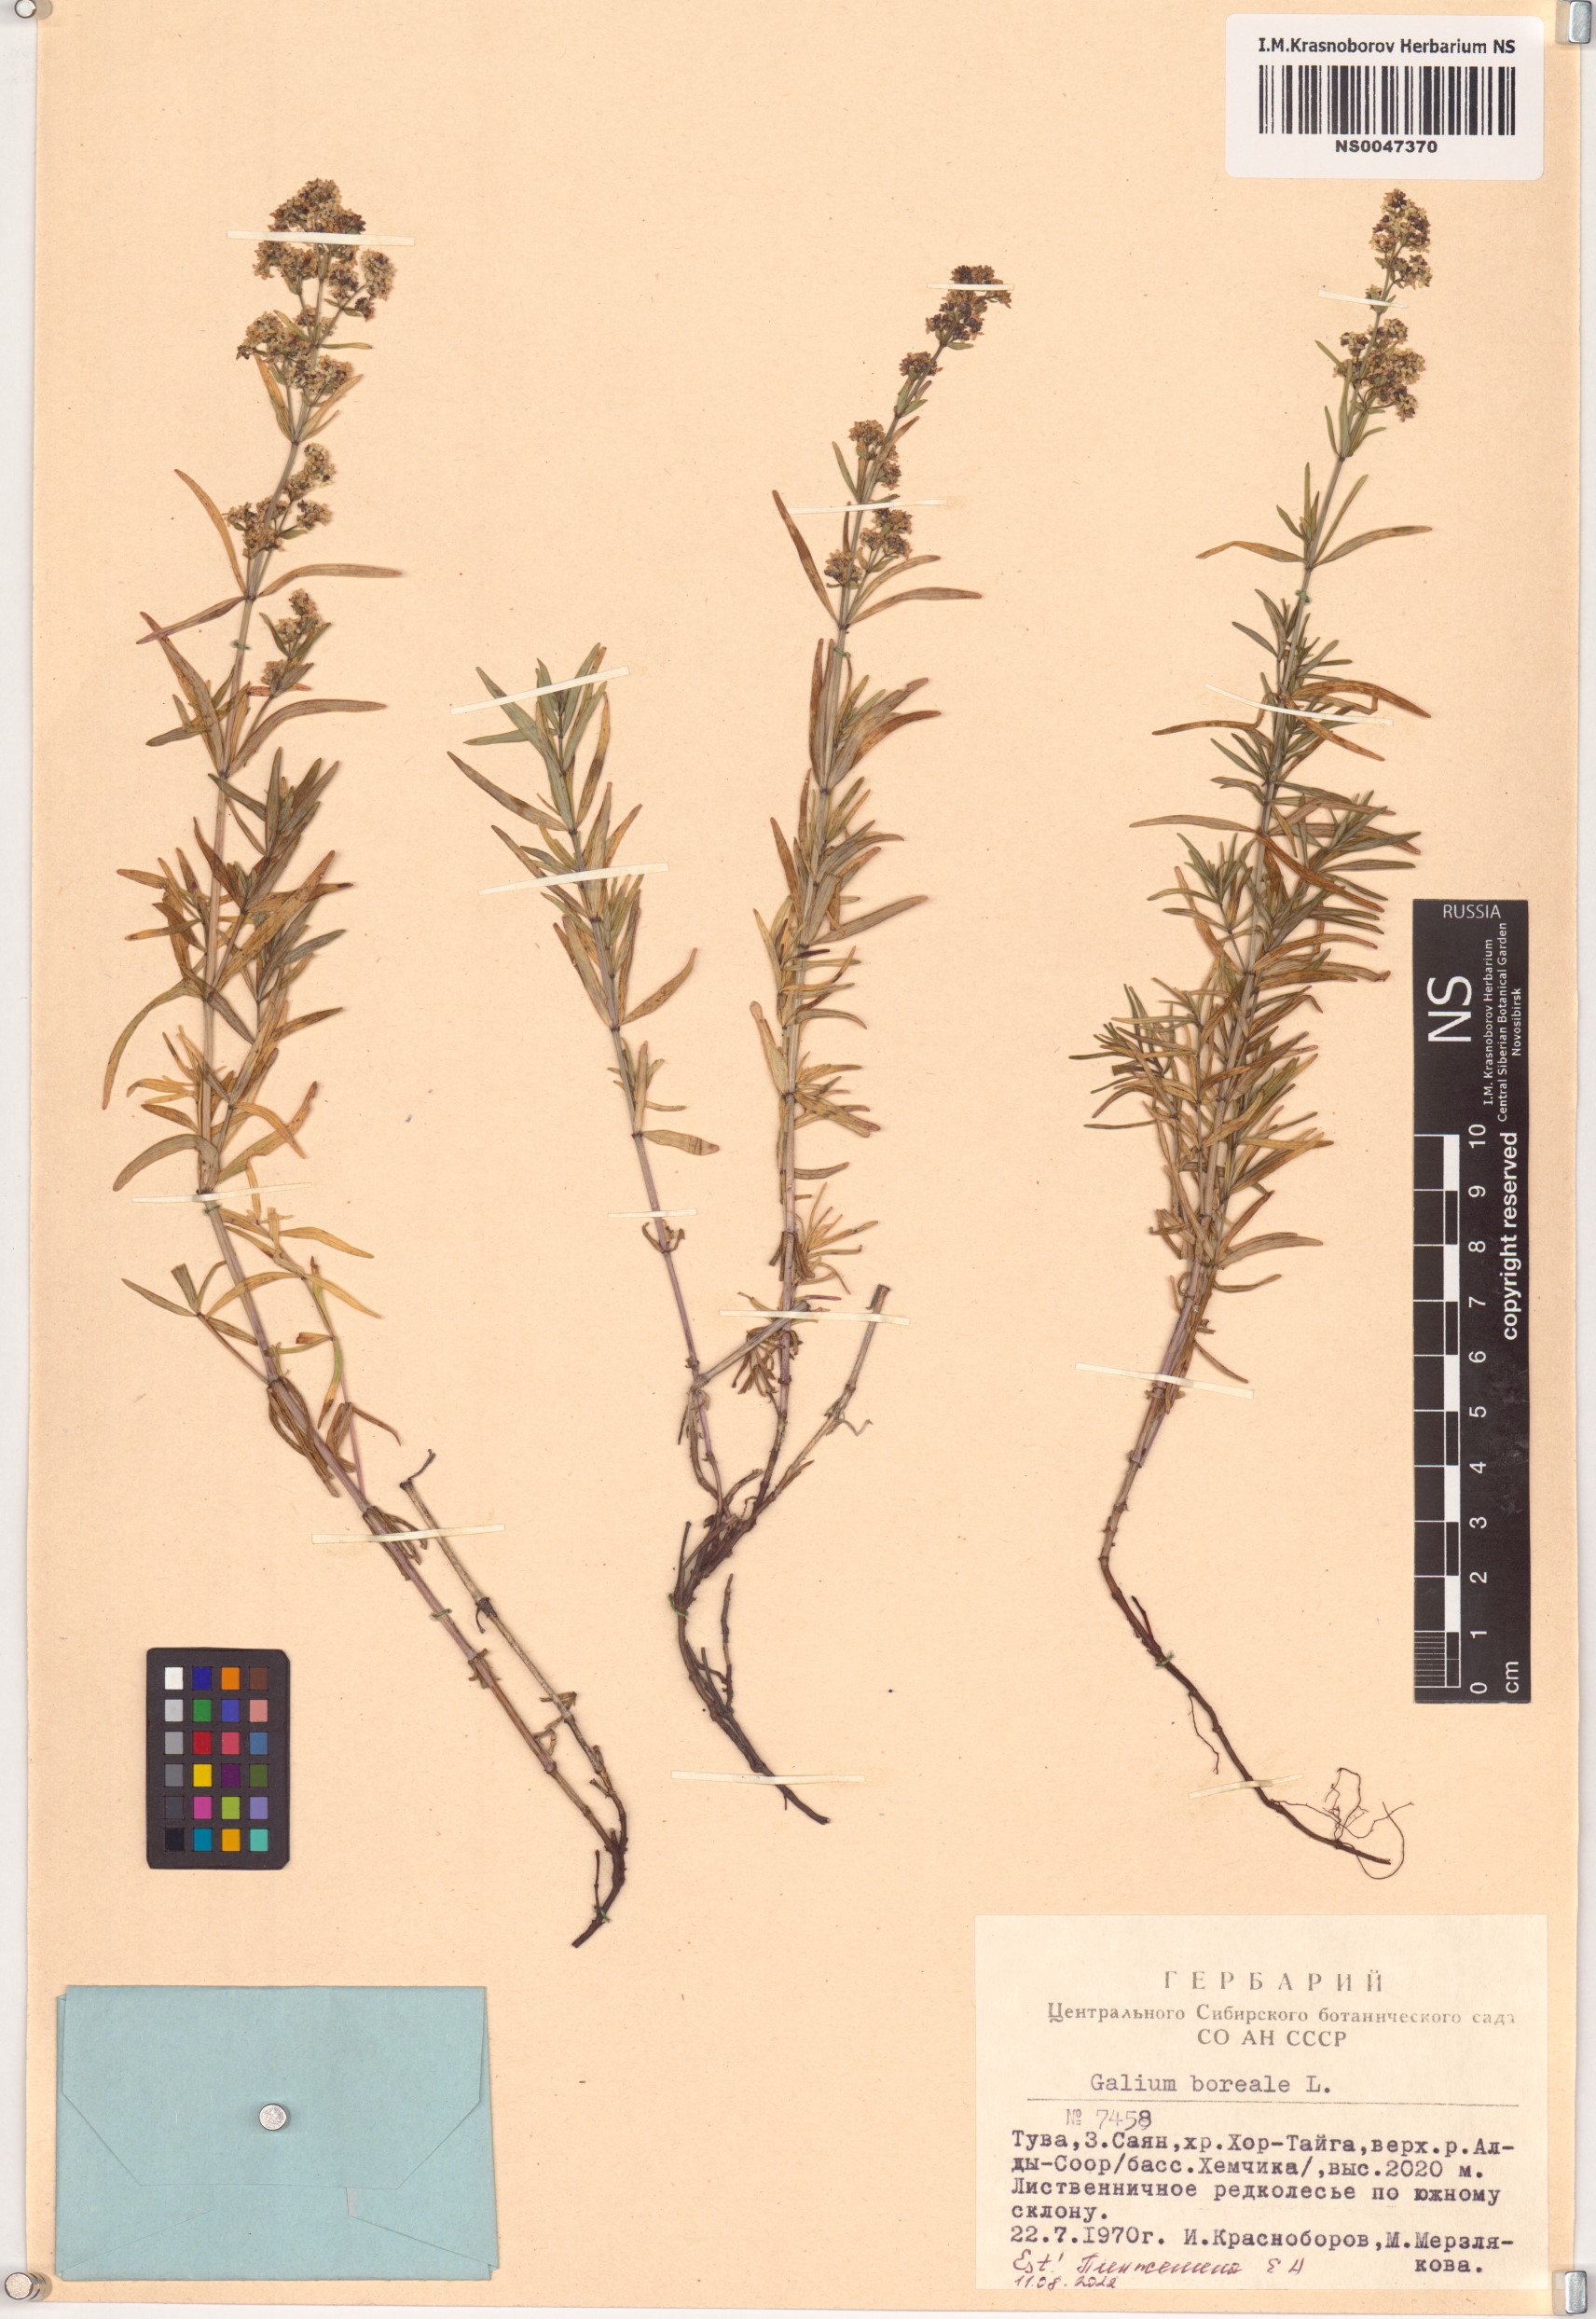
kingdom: Plantae
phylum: Tracheophyta
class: Magnoliopsida
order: Gentianales
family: Rubiaceae
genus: Galium
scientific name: Galium boreale
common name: Northern bedstraw
